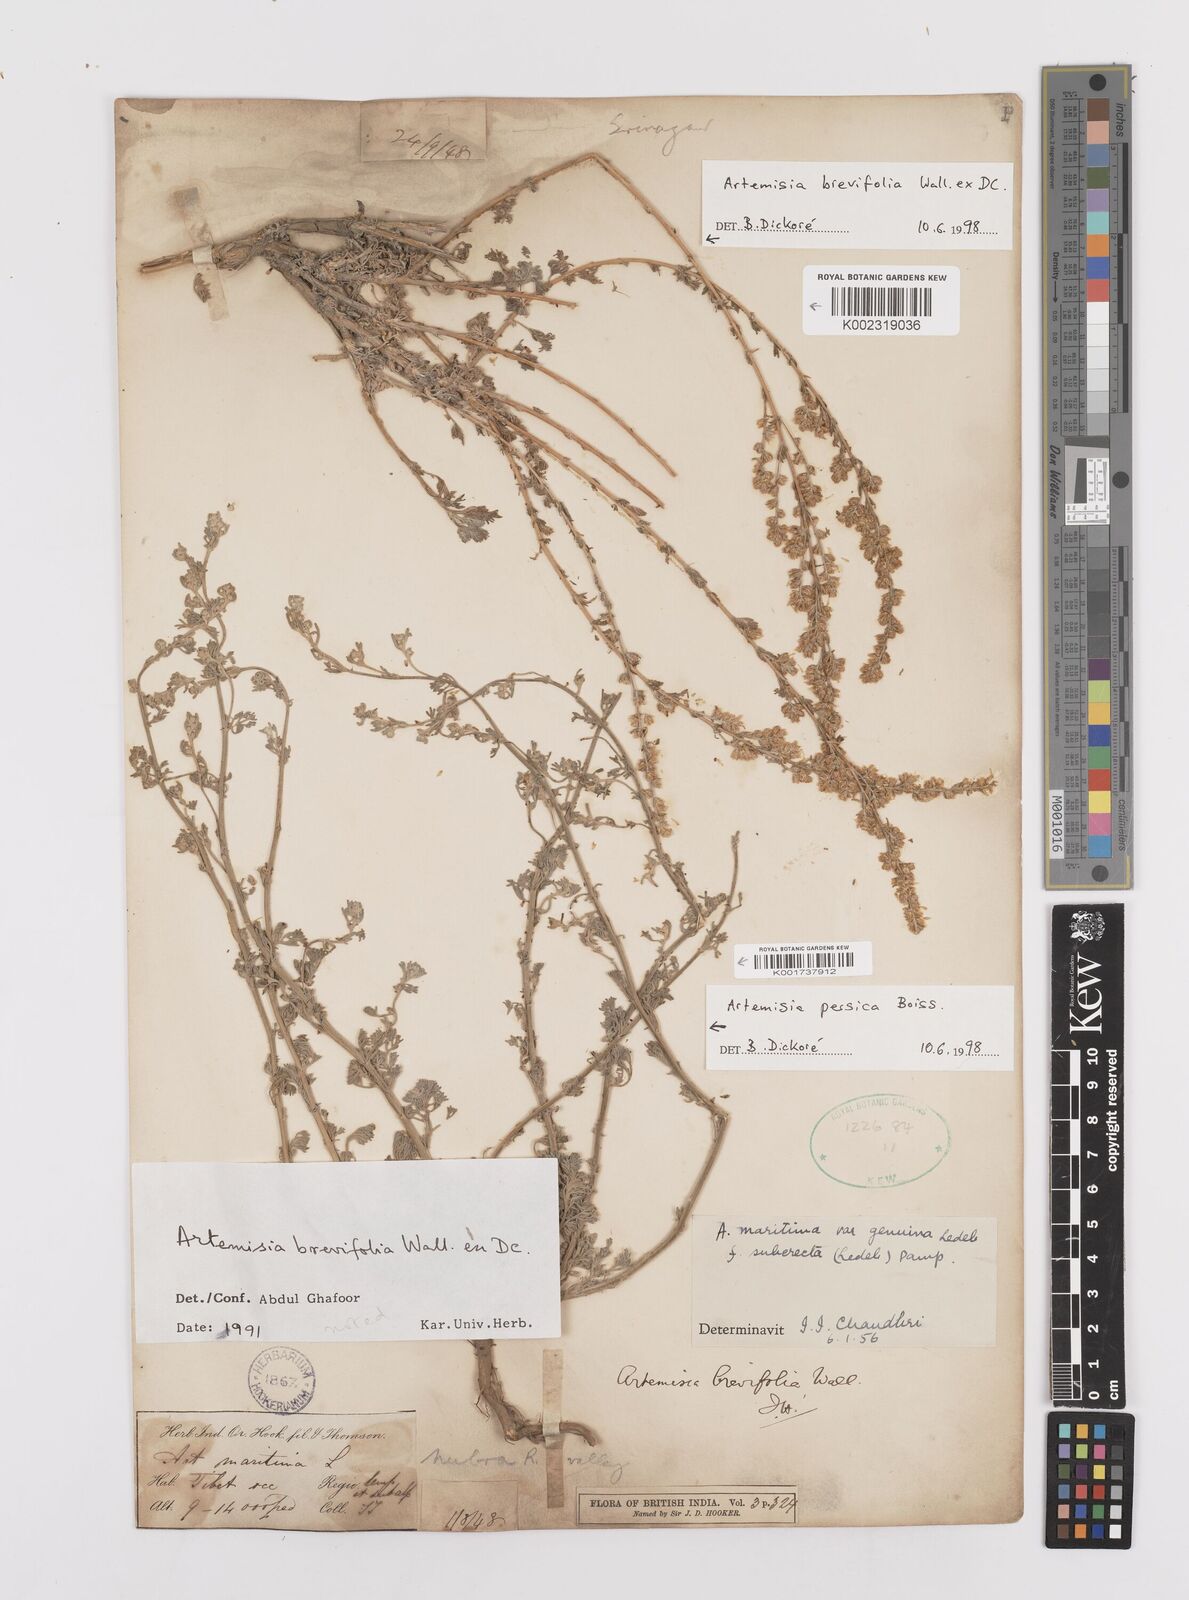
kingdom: Plantae
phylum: Tracheophyta
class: Magnoliopsida
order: Asterales
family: Asteraceae
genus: Artemisia
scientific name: Artemisia brevifolia
